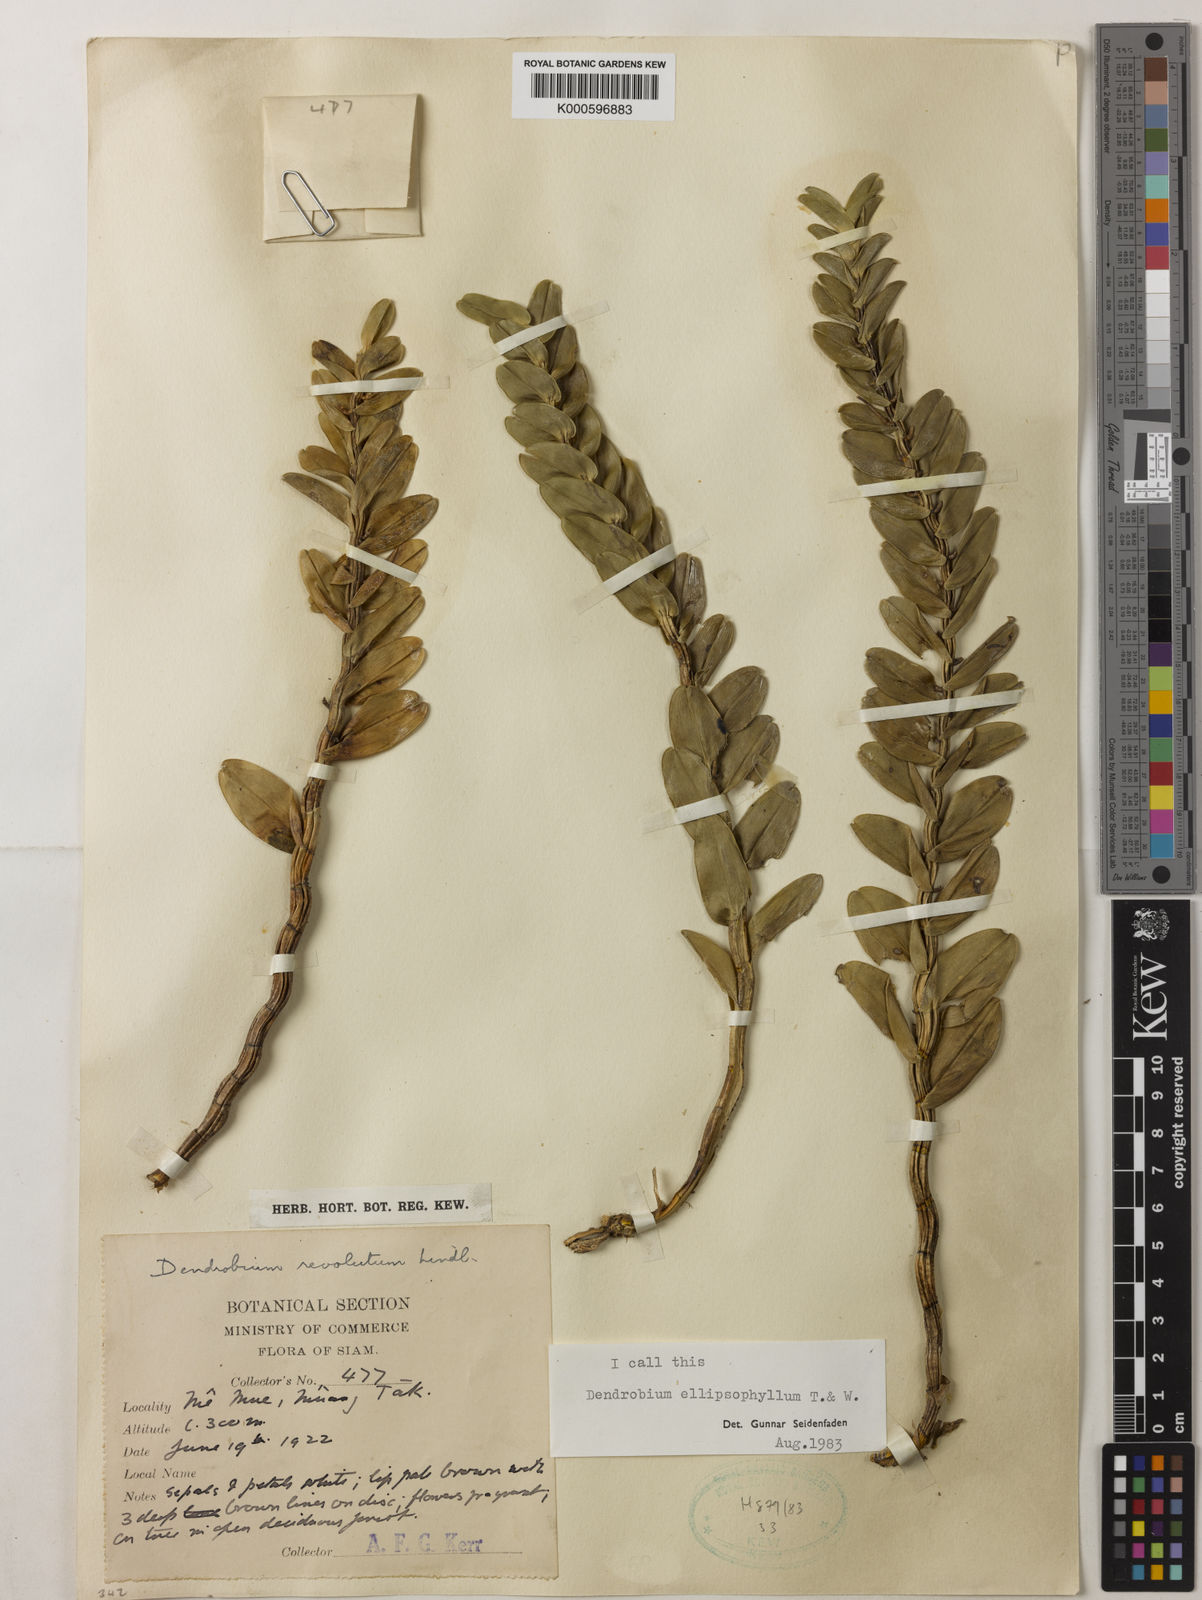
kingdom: Plantae
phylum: Tracheophyta
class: Liliopsida
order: Asparagales
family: Orchidaceae
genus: Dendrobium
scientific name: Dendrobium ellipsophyllum
